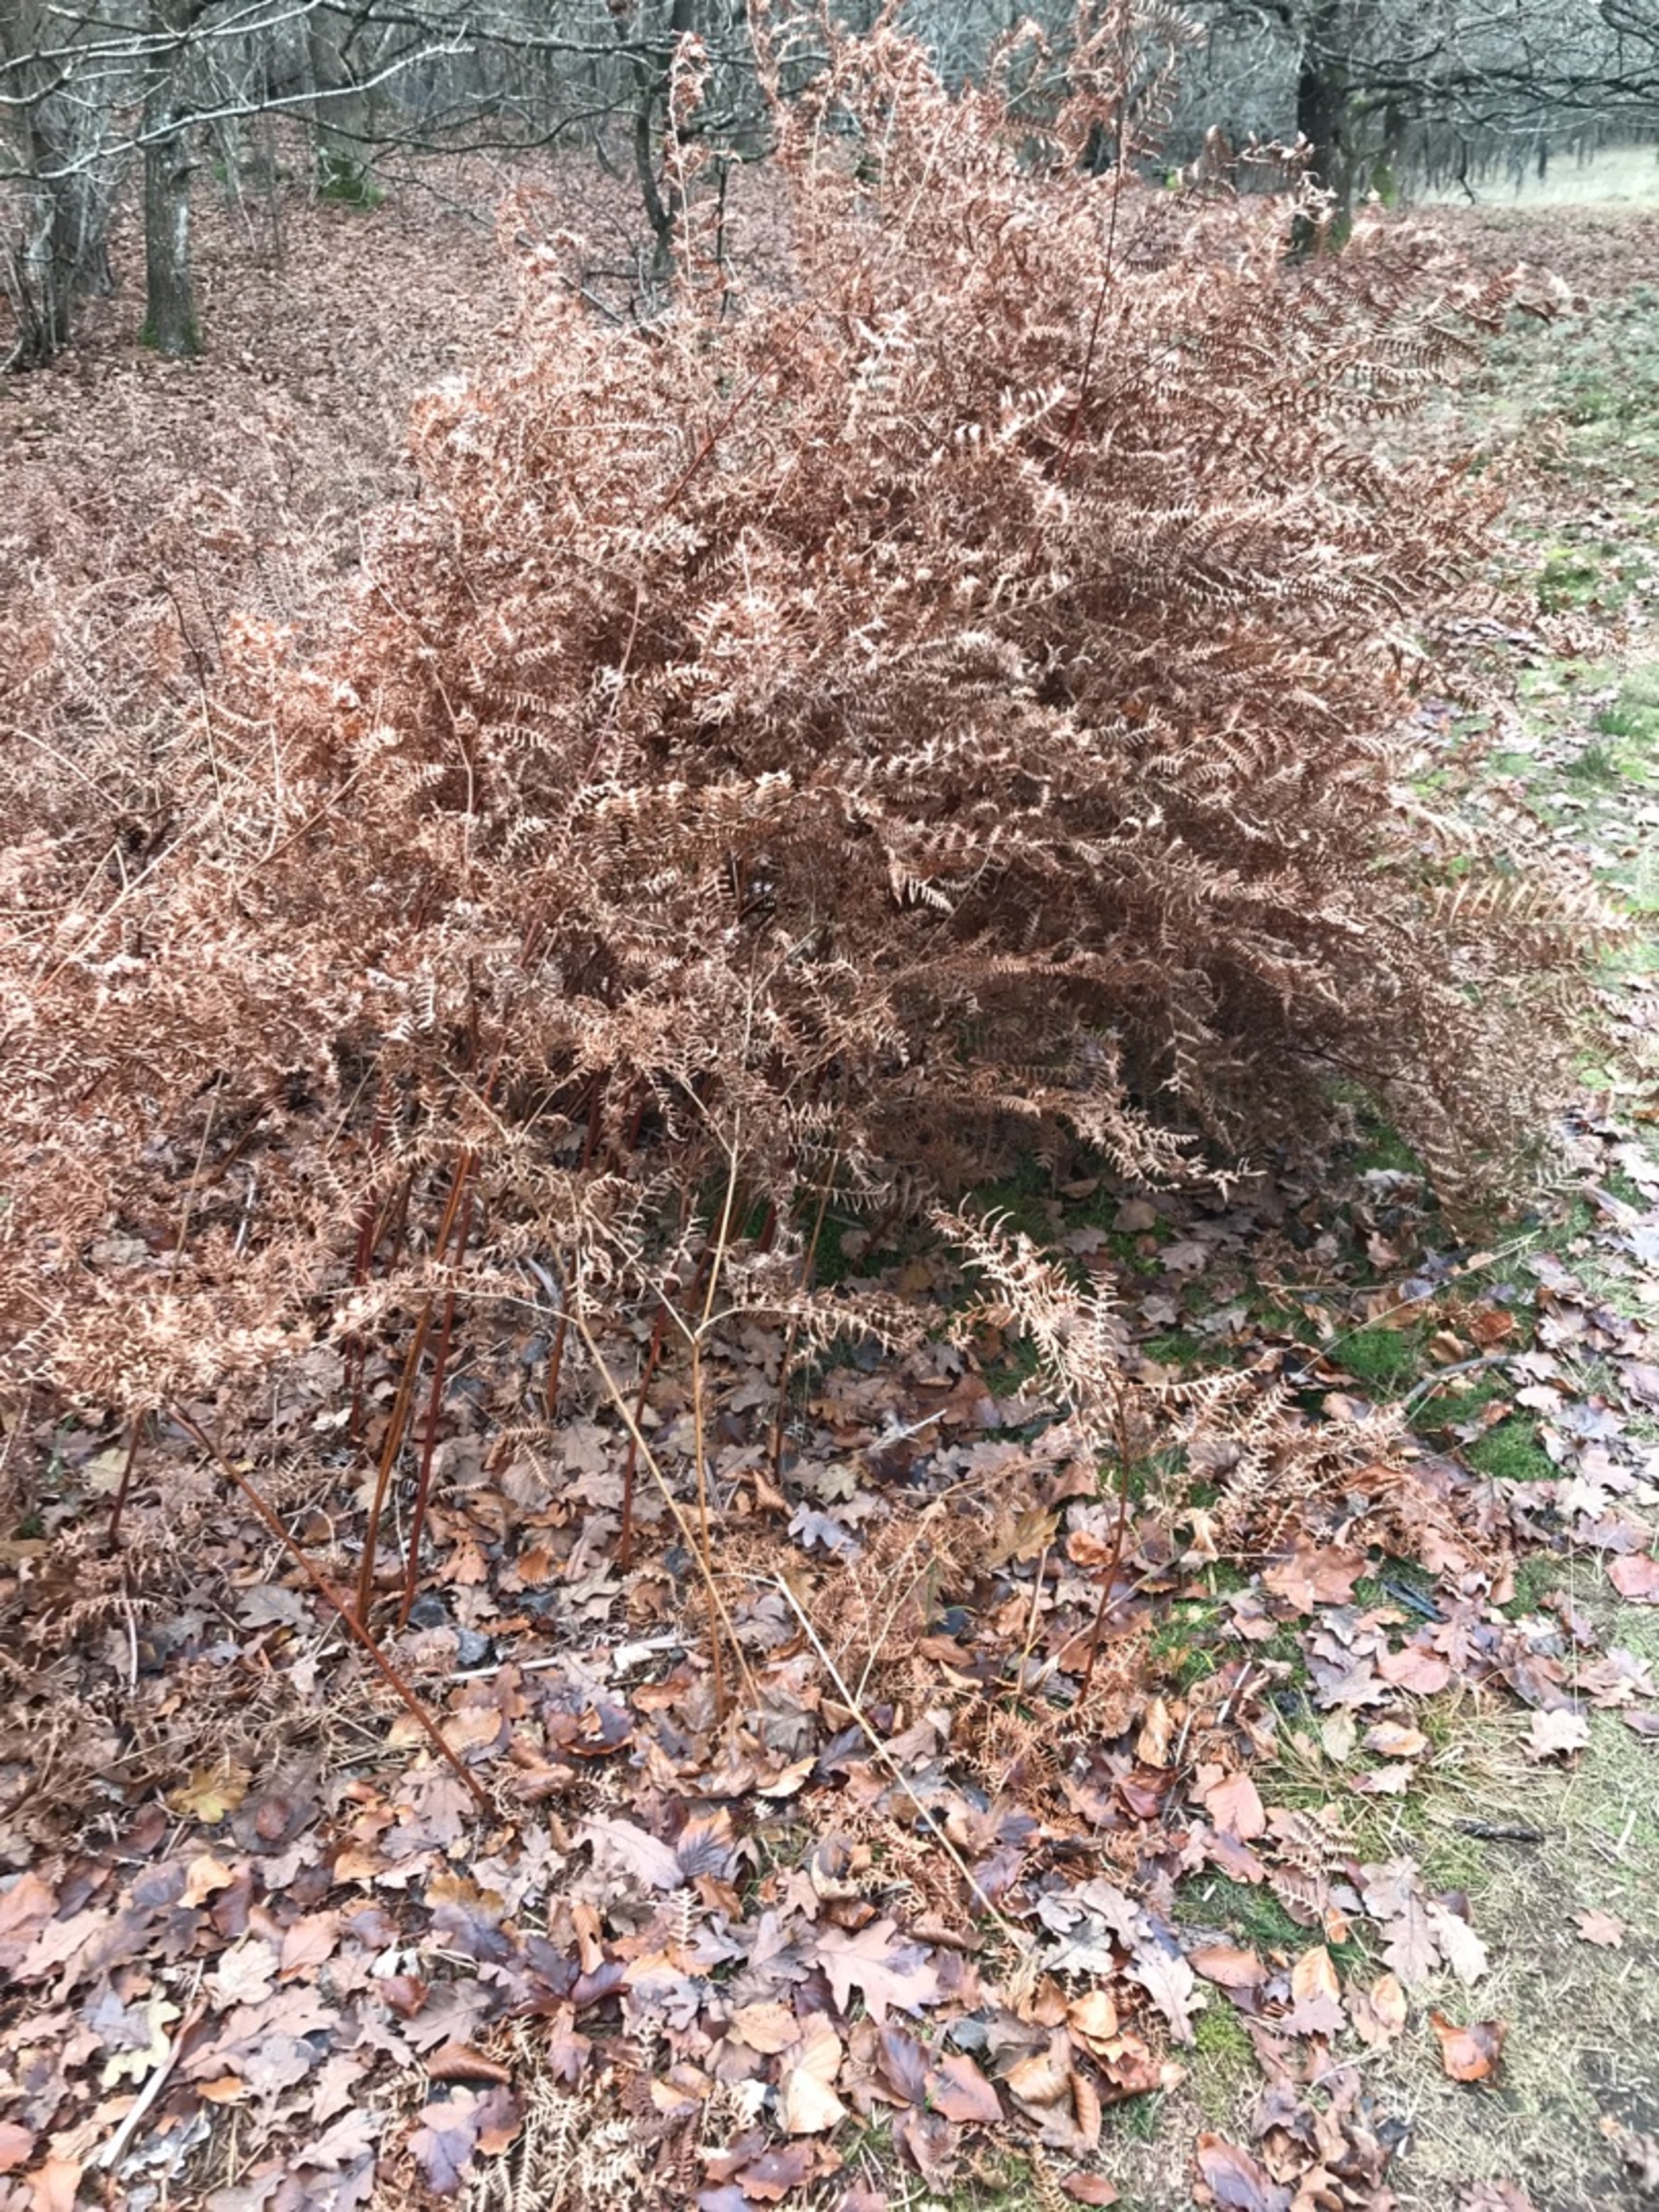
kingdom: Plantae
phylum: Tracheophyta
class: Polypodiopsida
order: Polypodiales
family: Dennstaedtiaceae
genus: Pteridium
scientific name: Pteridium aquilinum
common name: Ørnebregne
